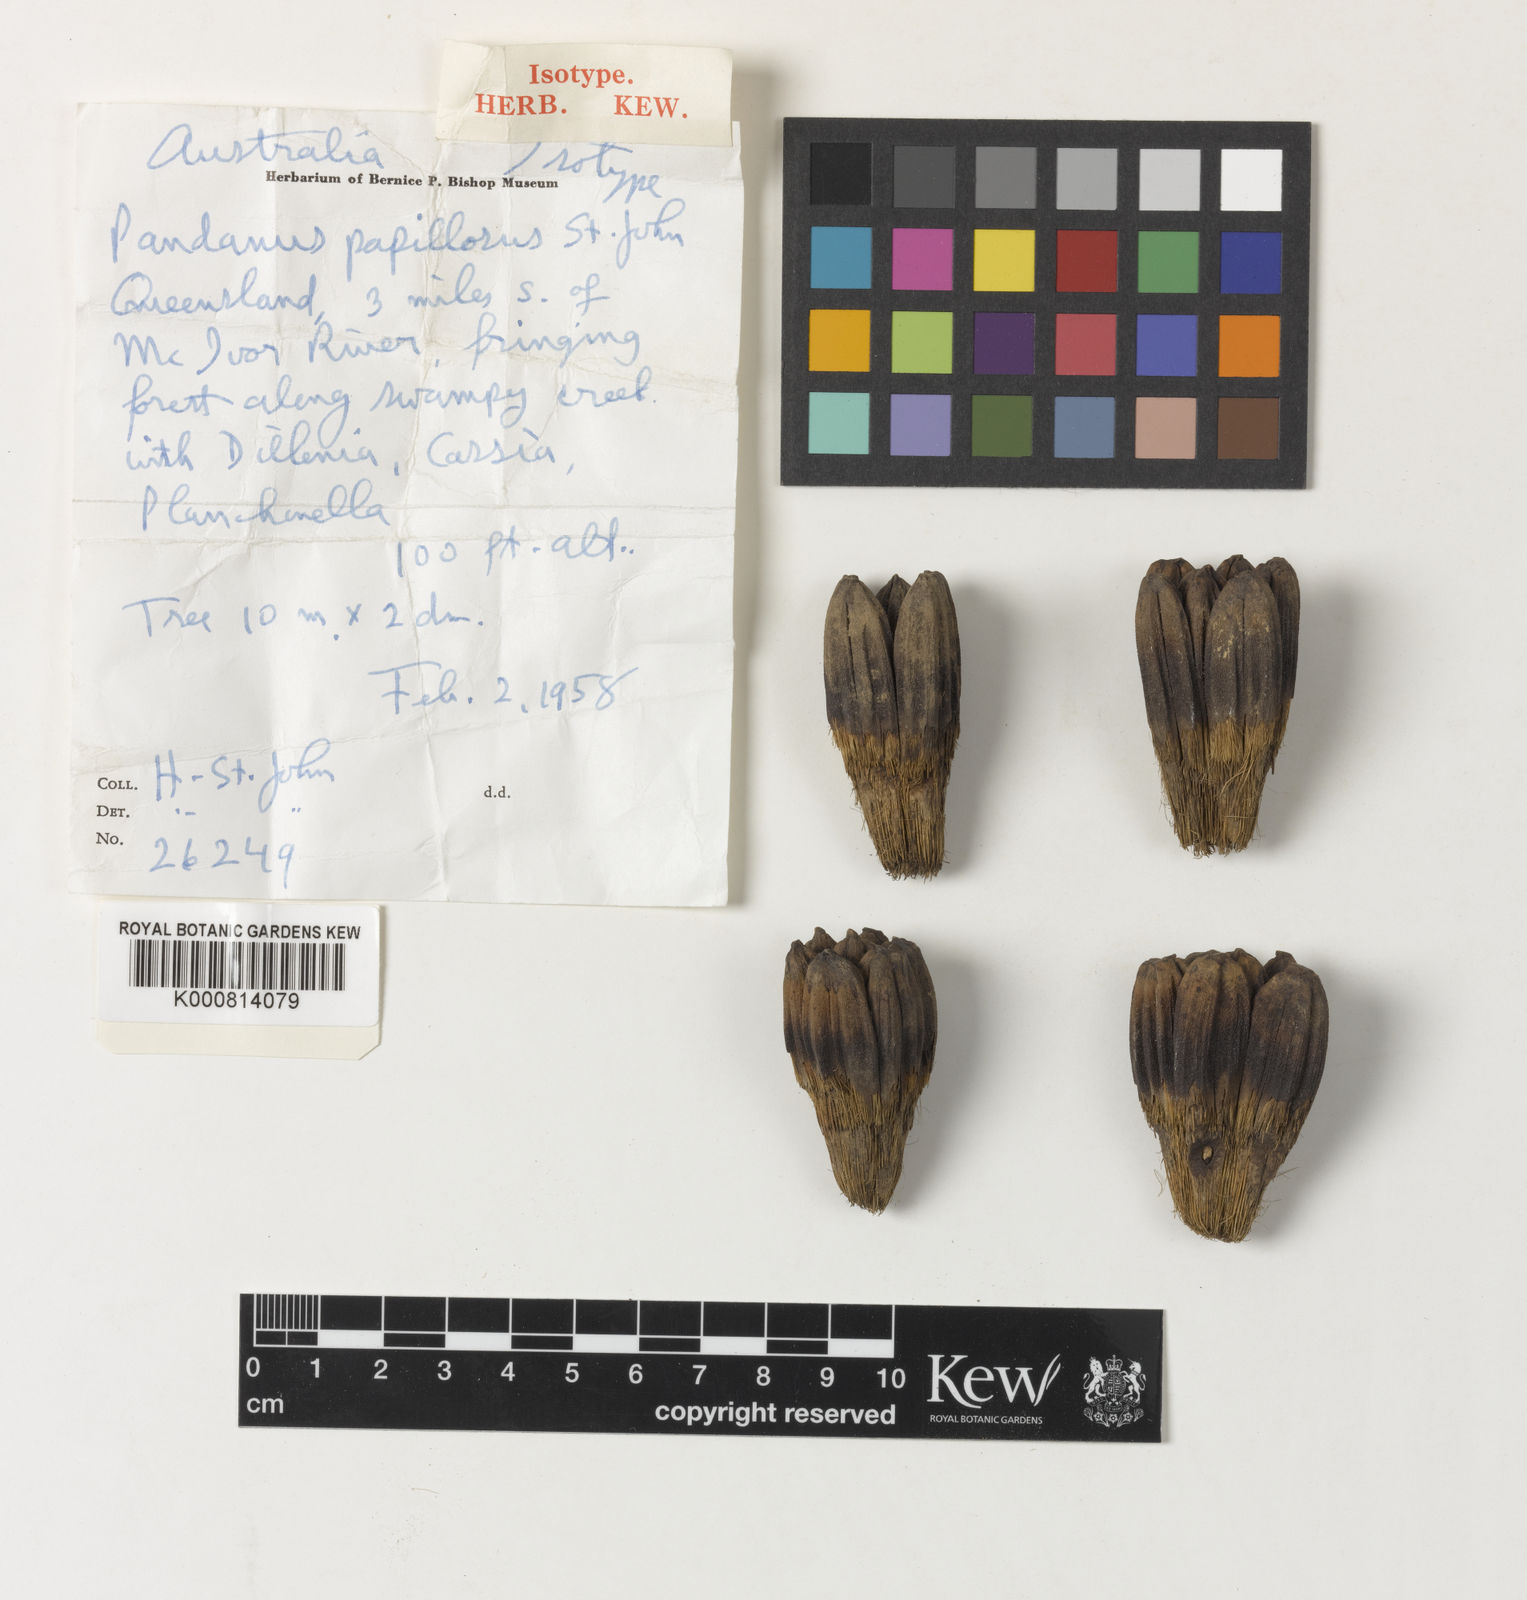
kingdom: Plantae
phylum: Tracheophyta
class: Liliopsida
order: Pandanales
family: Pandanaceae
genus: Pandanus
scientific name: Pandanus solms-laubachii
